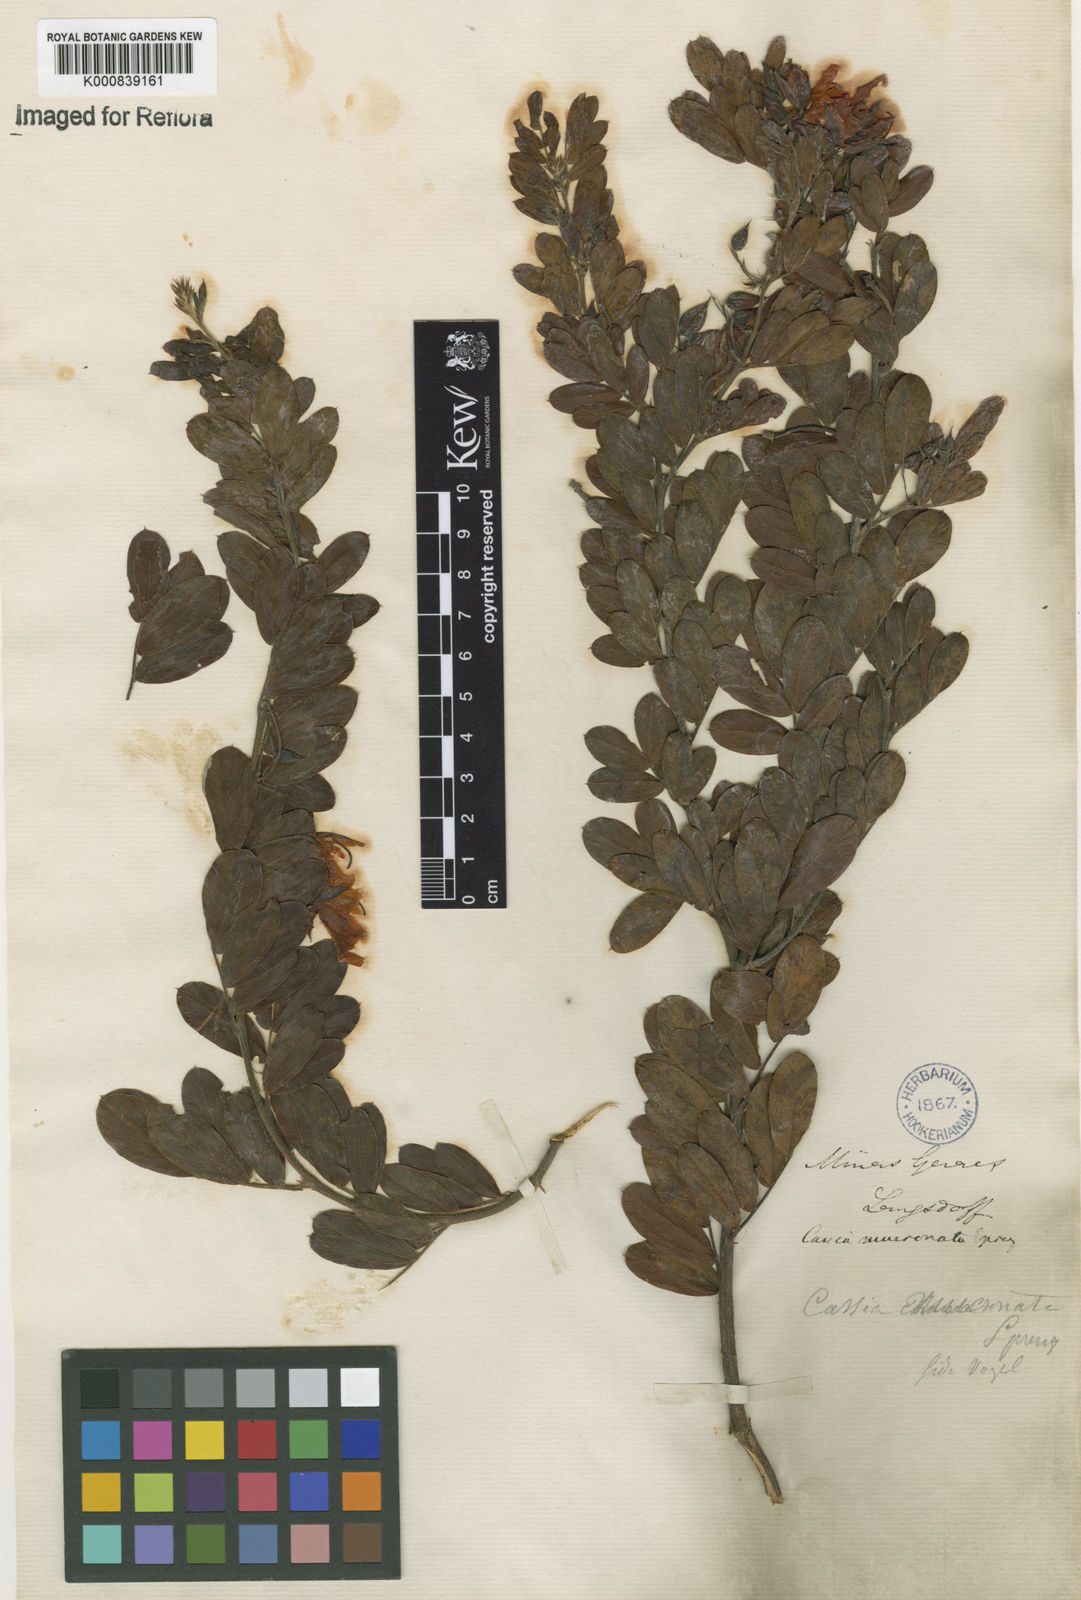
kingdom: Plantae
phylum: Tracheophyta
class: Magnoliopsida
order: Fabales
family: Fabaceae
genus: Chamaecrista
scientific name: Chamaecrista mucronata
